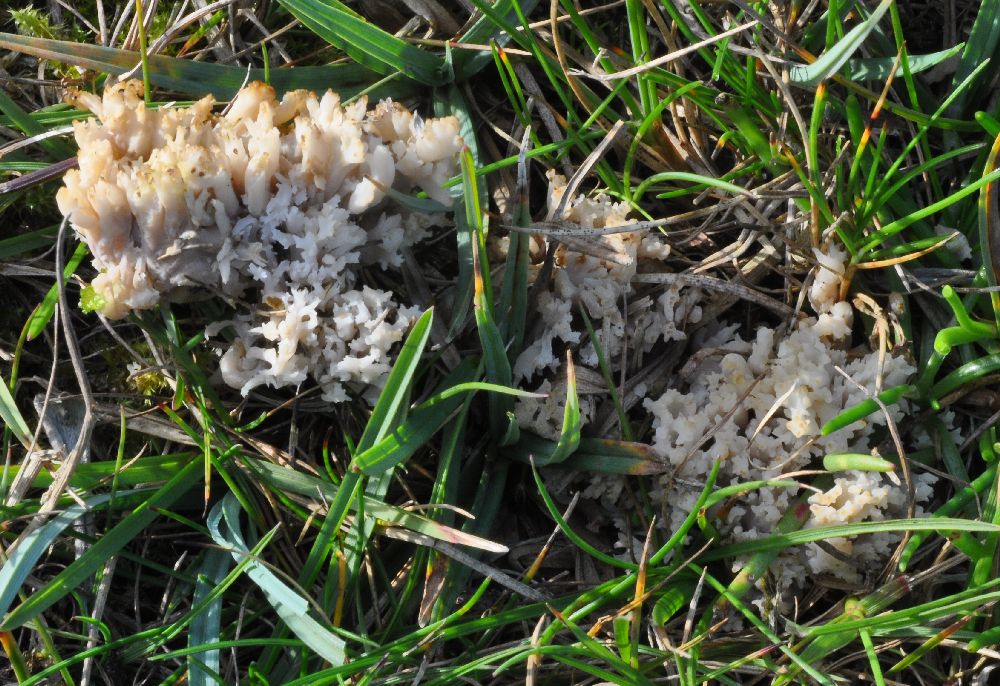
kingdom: Fungi
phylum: Basidiomycota
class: Agaricomycetes
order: Agaricales
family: Clavariaceae
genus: Clavulinopsis
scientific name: Clavulinopsis umbrinella
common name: gulgrå køllesvamp
